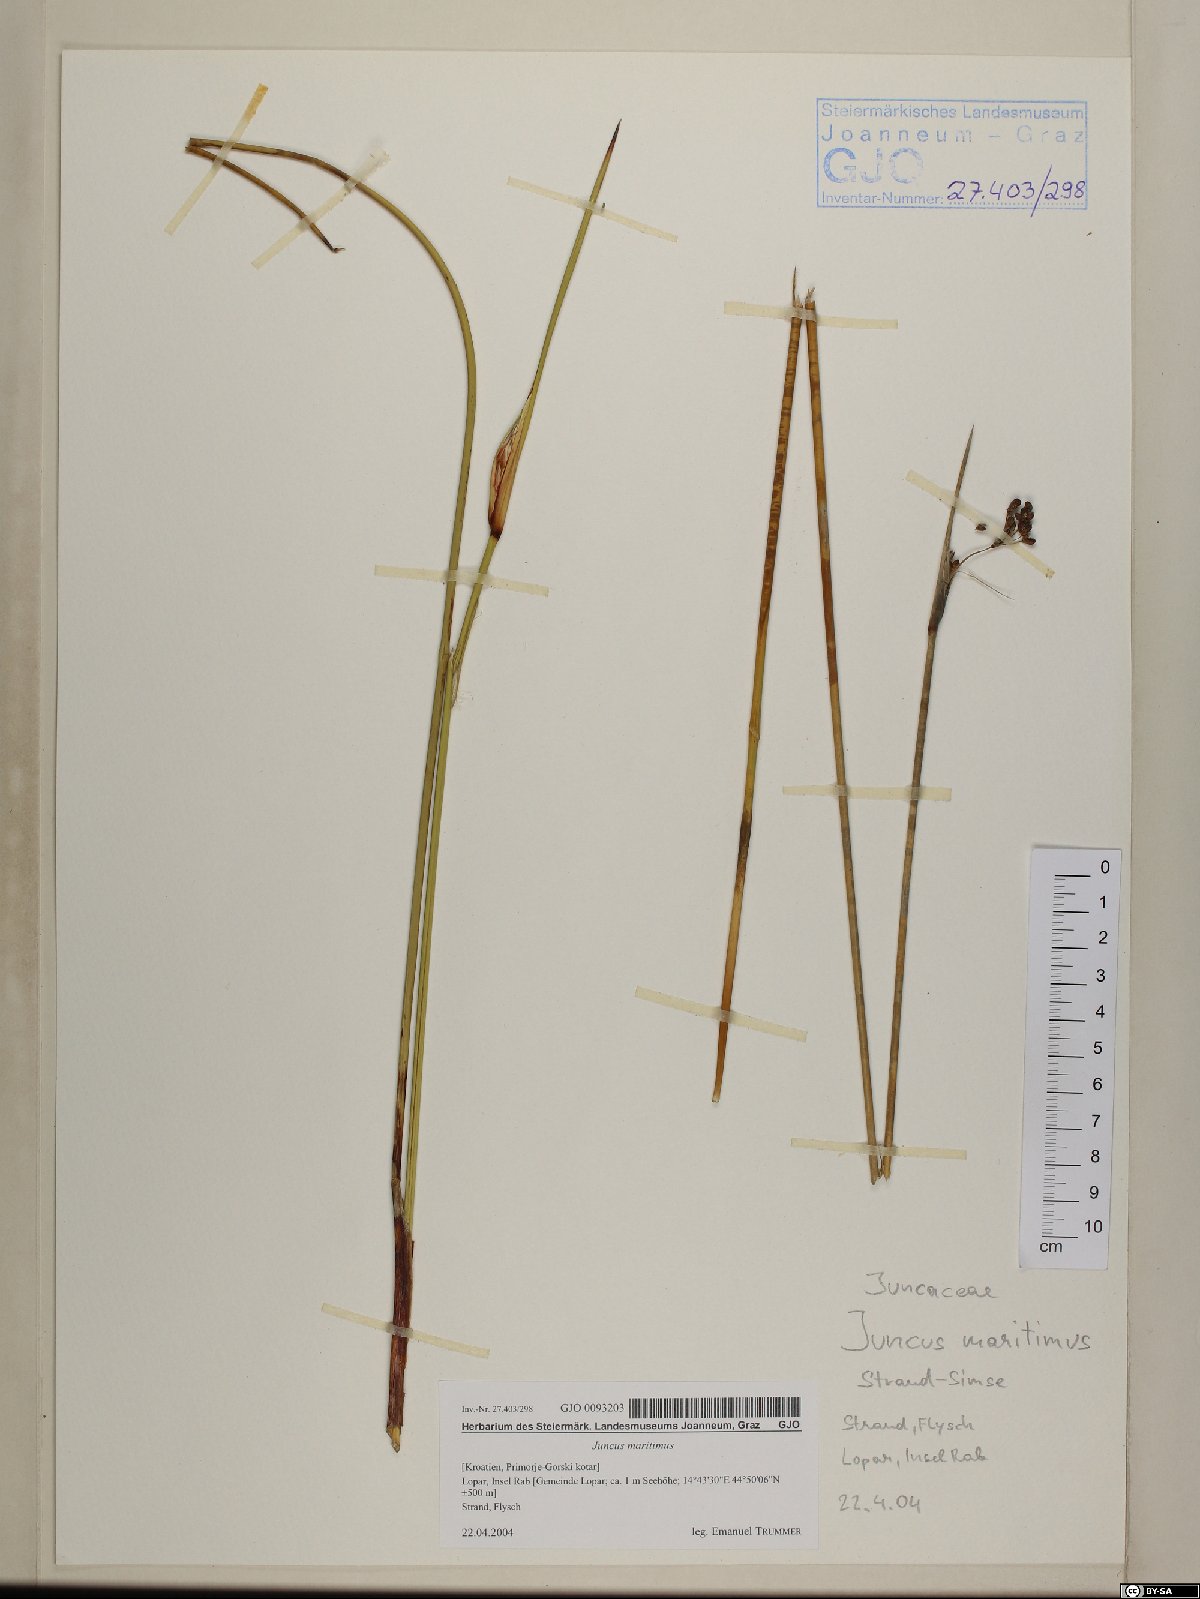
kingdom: Plantae
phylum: Tracheophyta
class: Liliopsida
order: Poales
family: Juncaceae
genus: Juncus
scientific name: Juncus maritimus
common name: Sea rush
